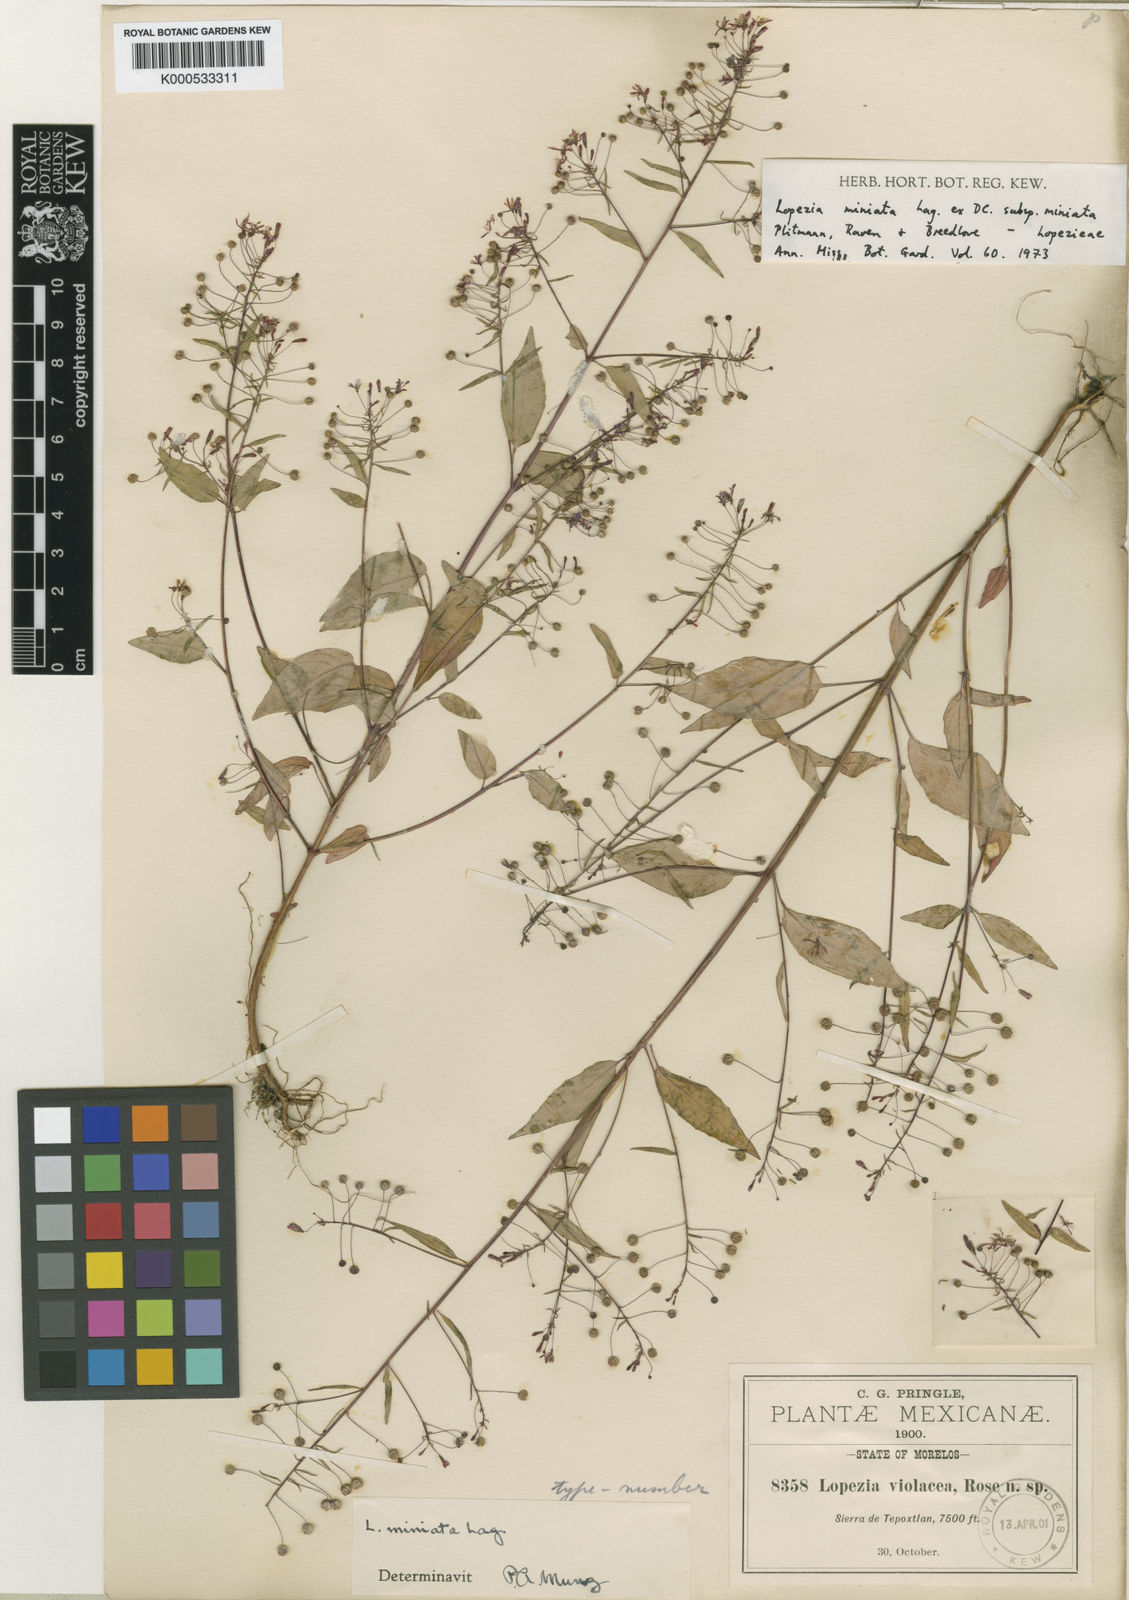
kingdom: Plantae
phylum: Tracheophyta
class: Magnoliopsida
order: Myrtales
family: Onagraceae
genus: Lopezia
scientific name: Lopezia miniata
